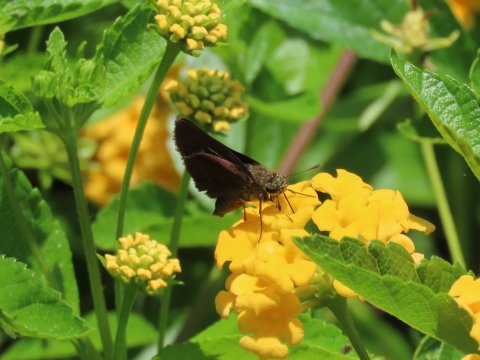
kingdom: Animalia
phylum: Arthropoda
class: Insecta
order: Lepidoptera
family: Hesperiidae
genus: Euphyes
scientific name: Euphyes vestris
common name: Dun Skipper
